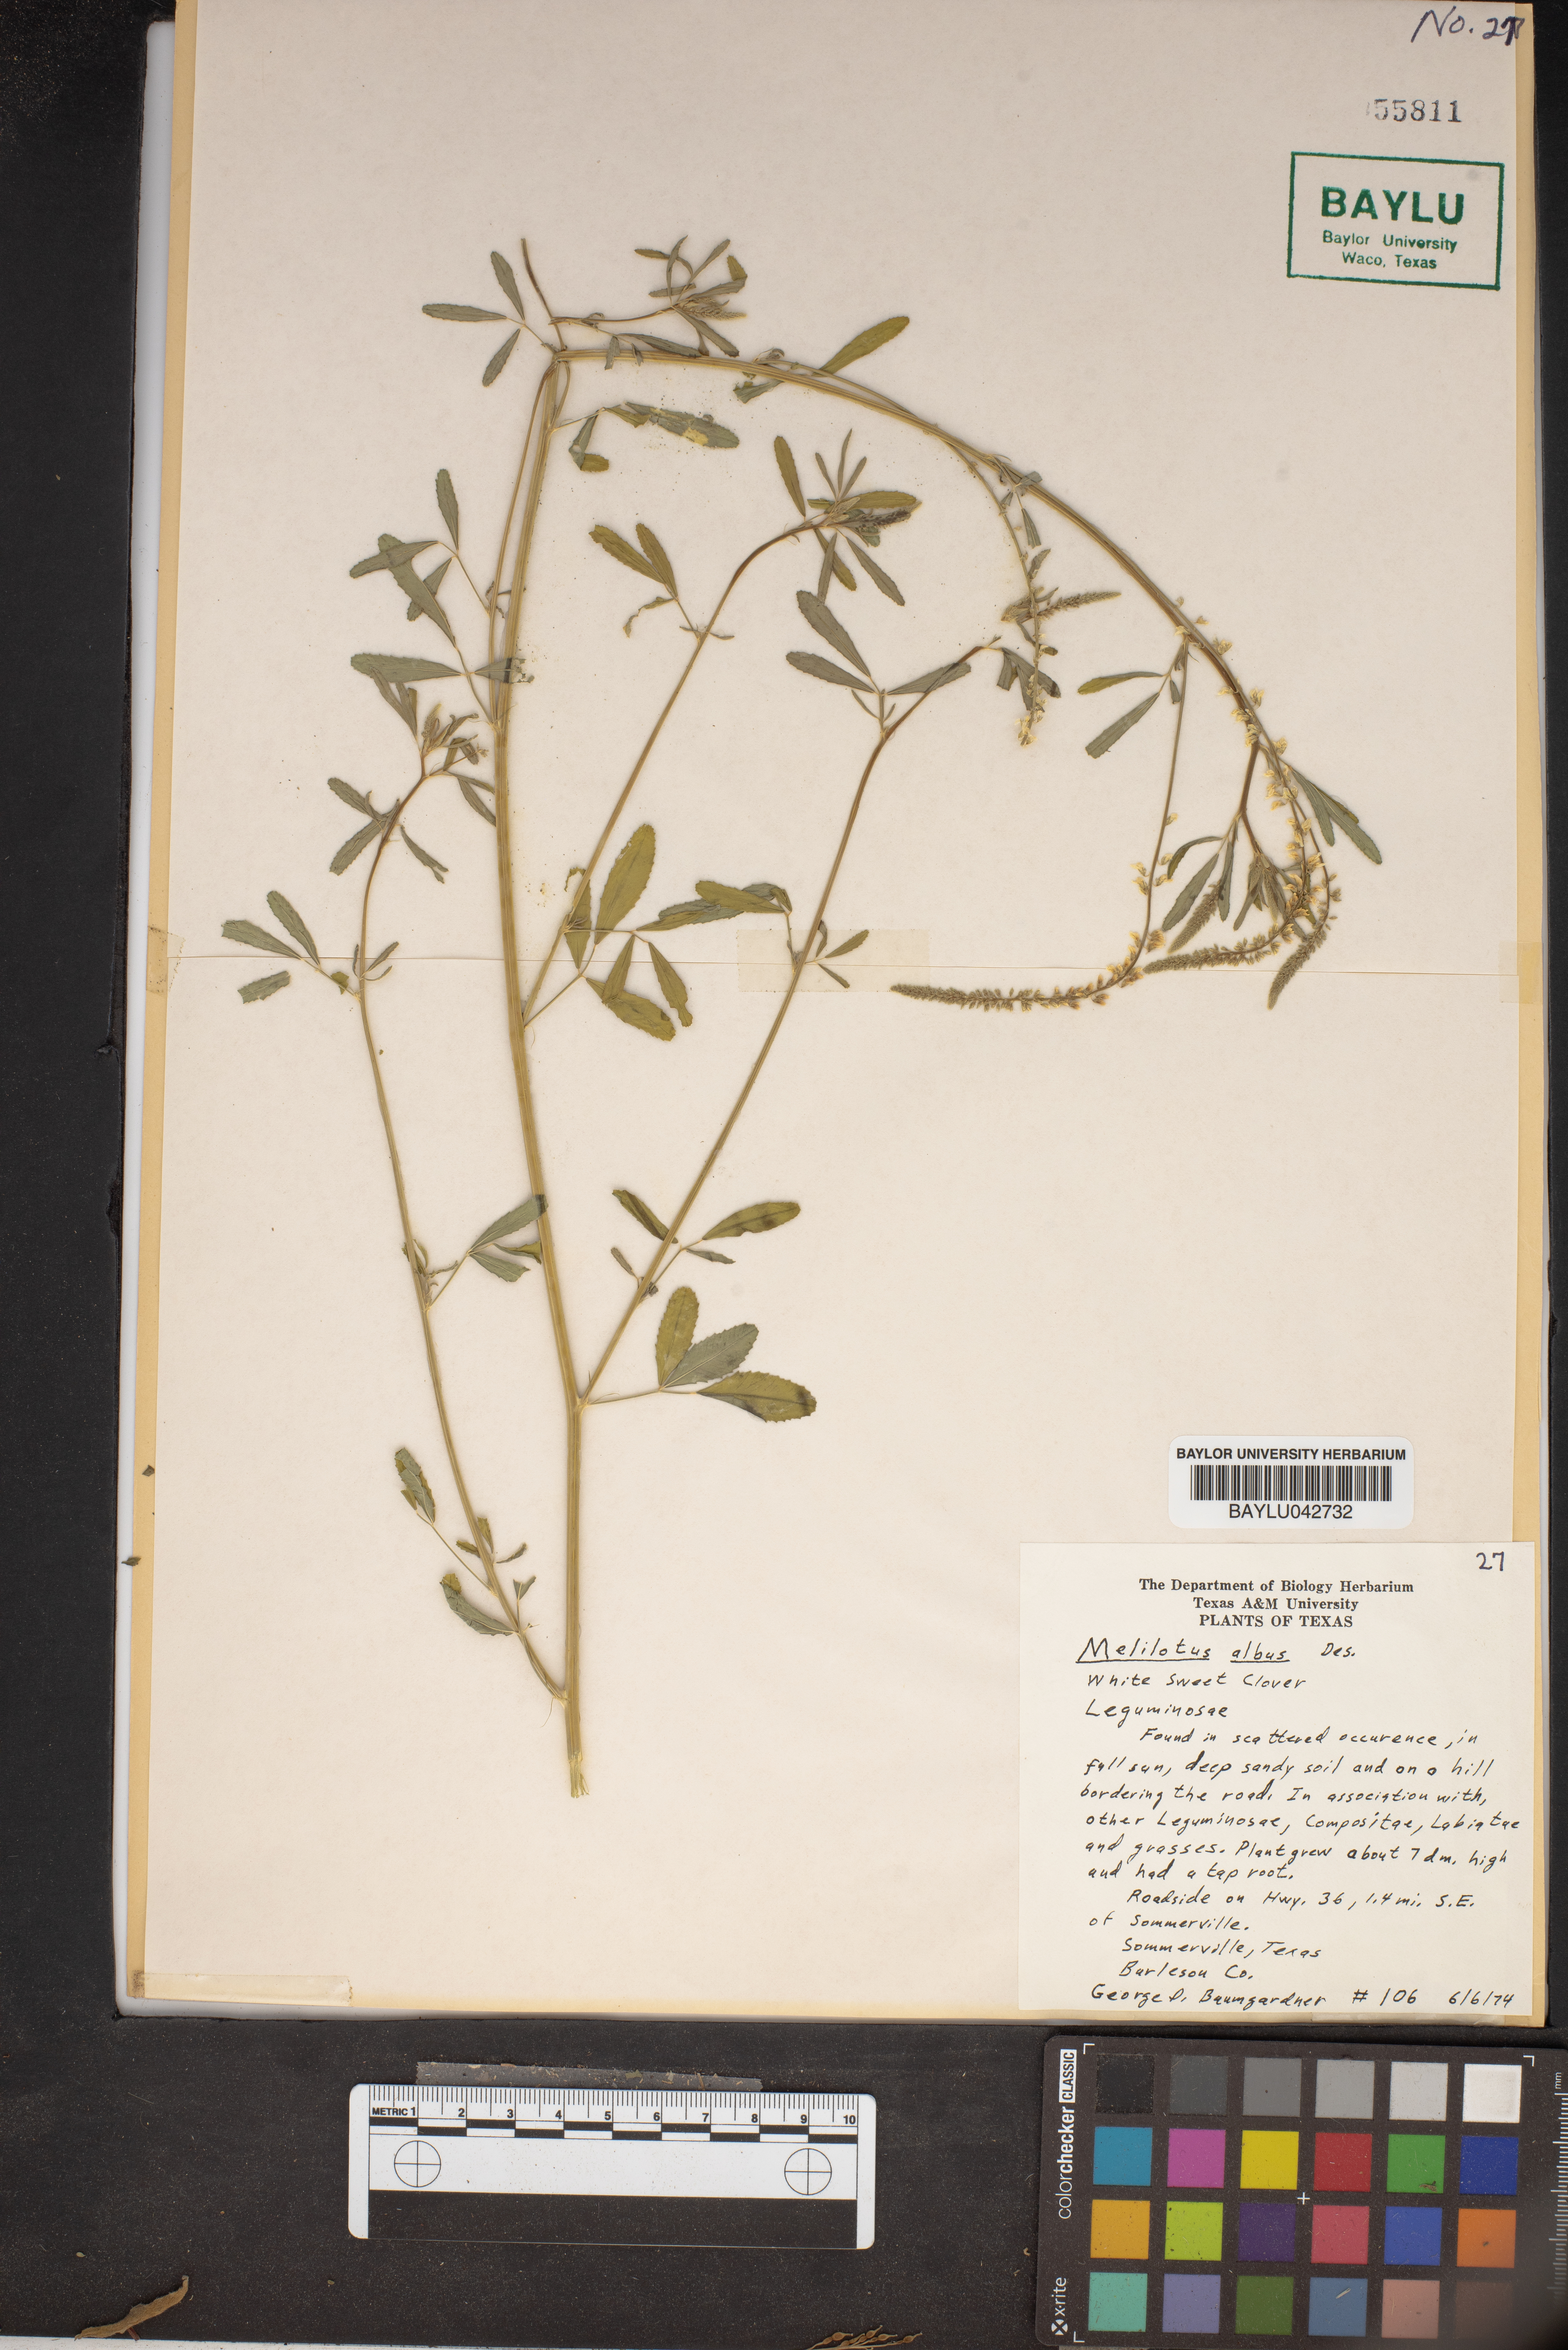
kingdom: Plantae
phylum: Tracheophyta
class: Magnoliopsida
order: Fabales
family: Fabaceae
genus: Melilotus
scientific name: Melilotus albus
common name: White melilot
